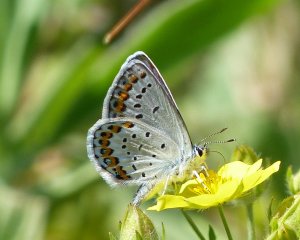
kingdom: Animalia
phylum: Arthropoda
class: Insecta
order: Lepidoptera
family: Lycaenidae
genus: Lycaeides
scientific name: Lycaeides idas
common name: Northern Blue
